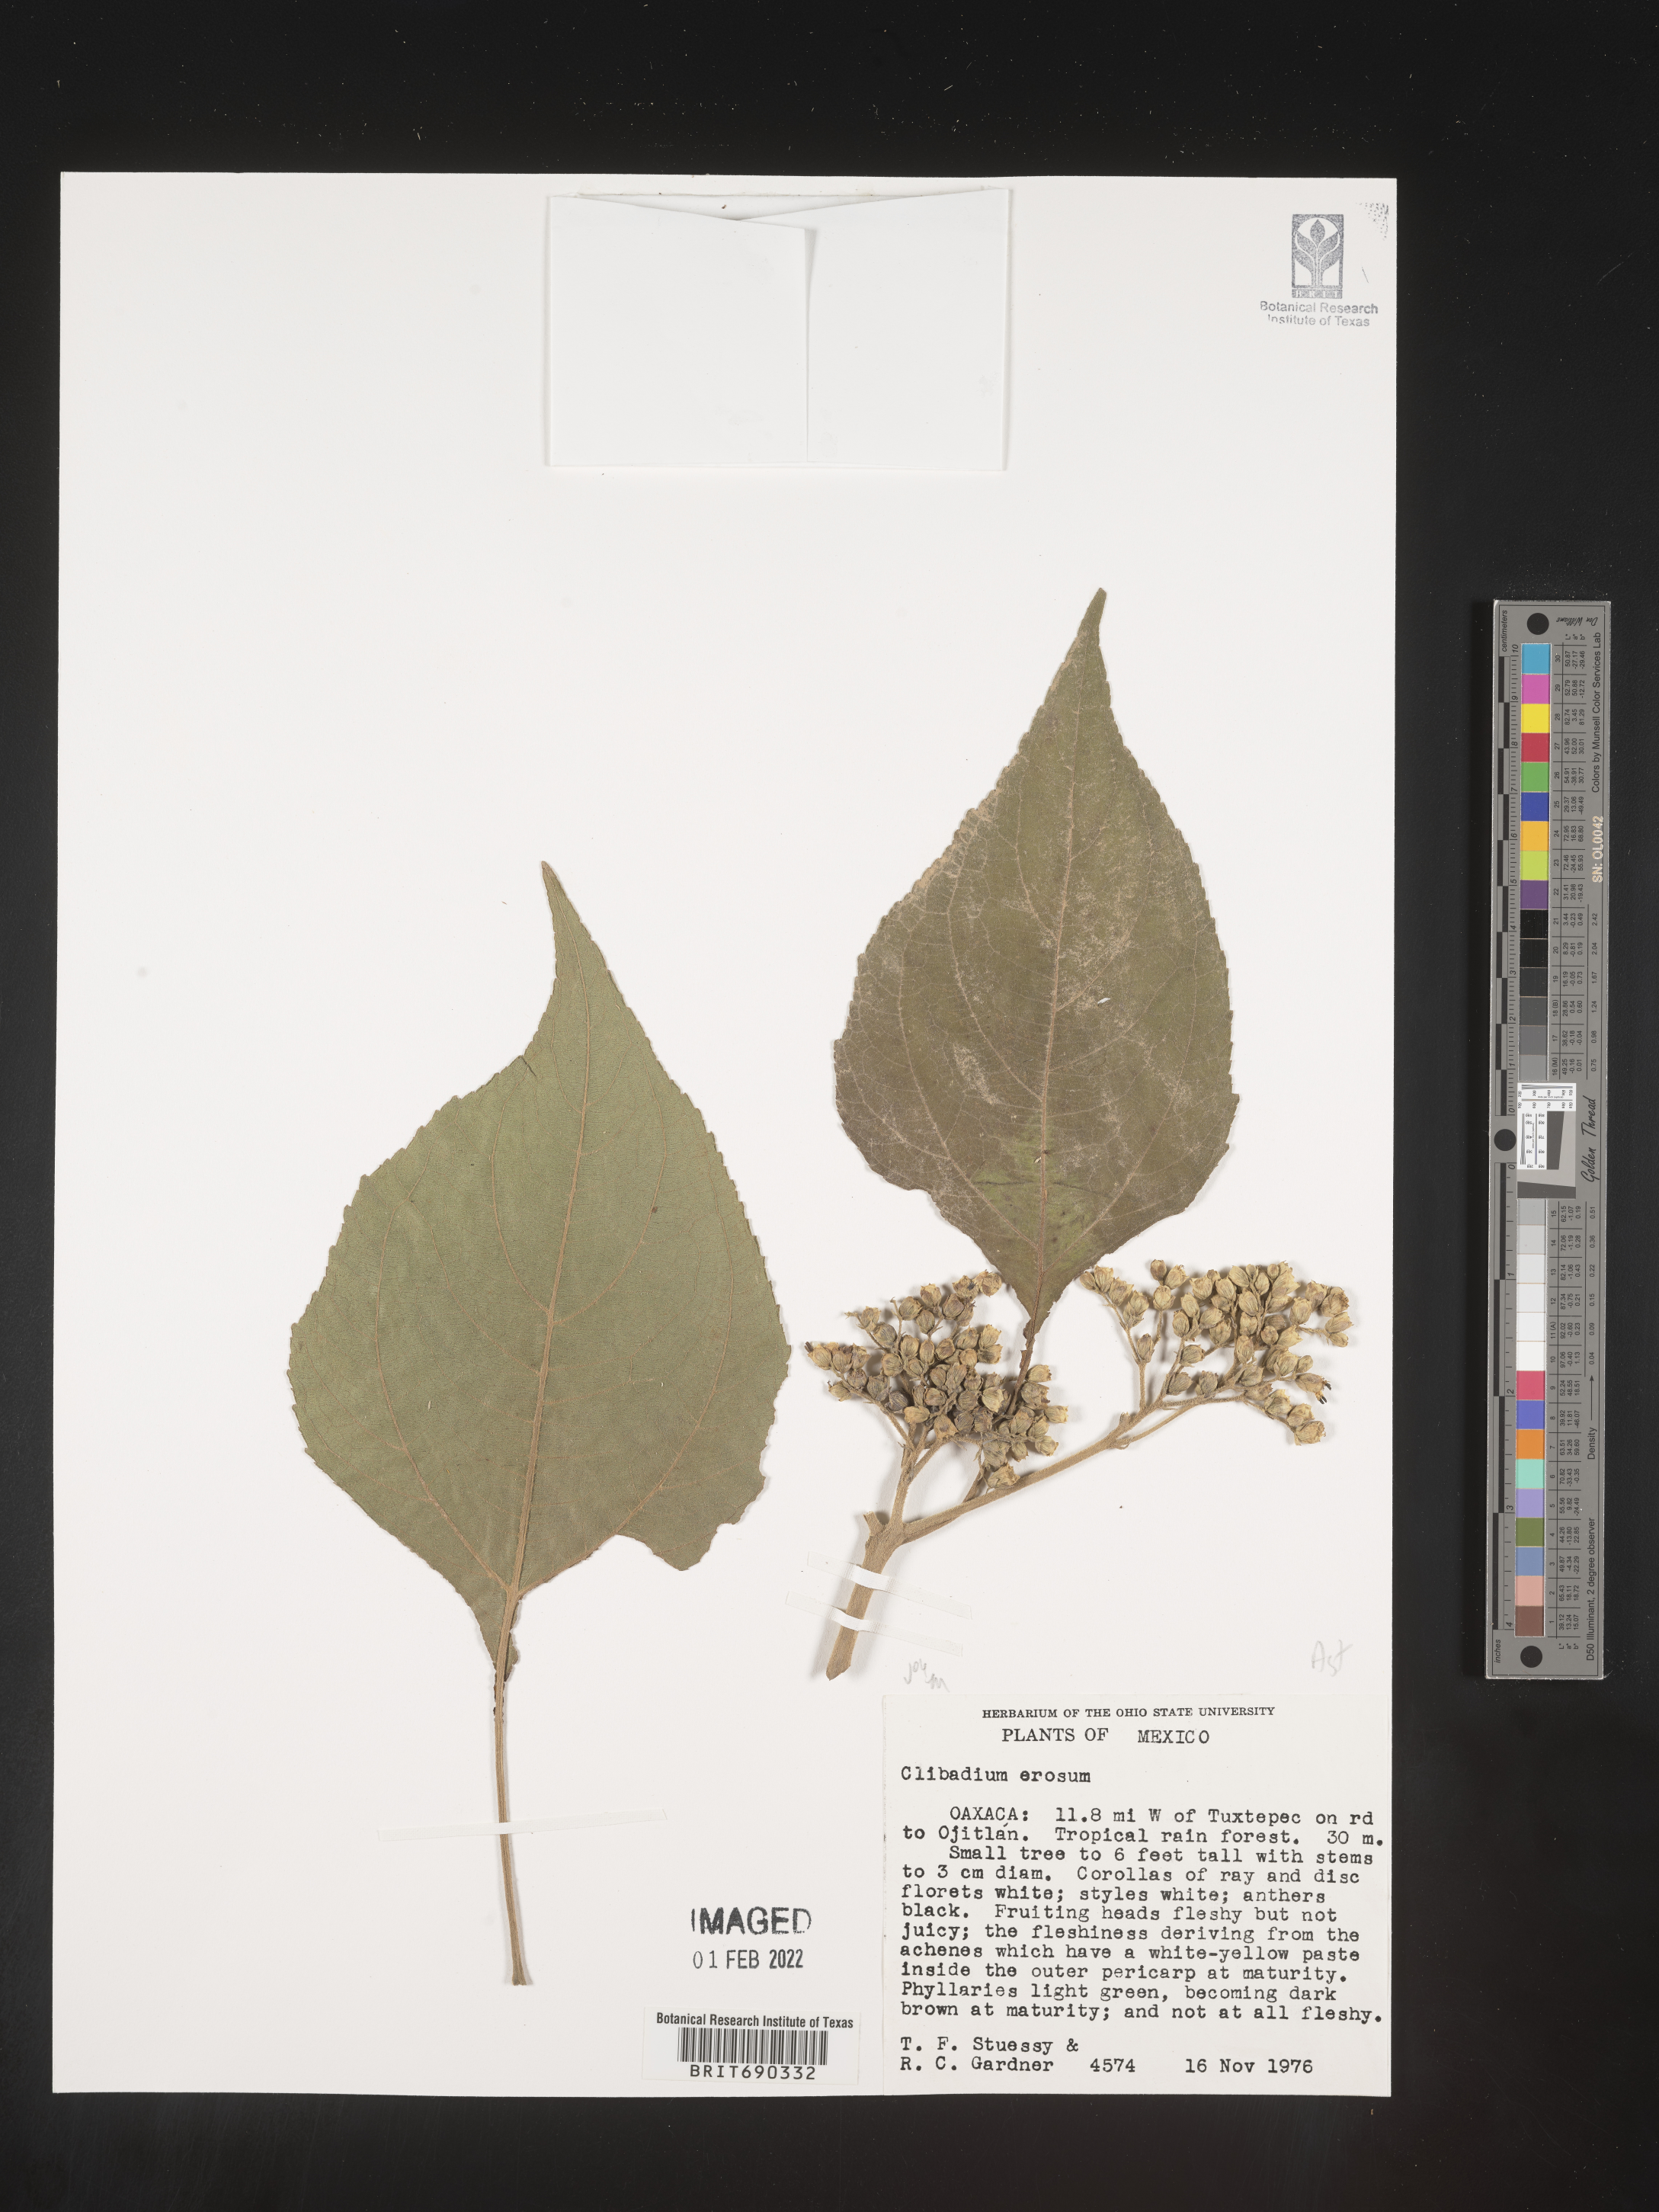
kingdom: Plantae
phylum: Tracheophyta
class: Magnoliopsida
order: Asterales
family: Asteraceae
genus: Clibadium
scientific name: Clibadium
